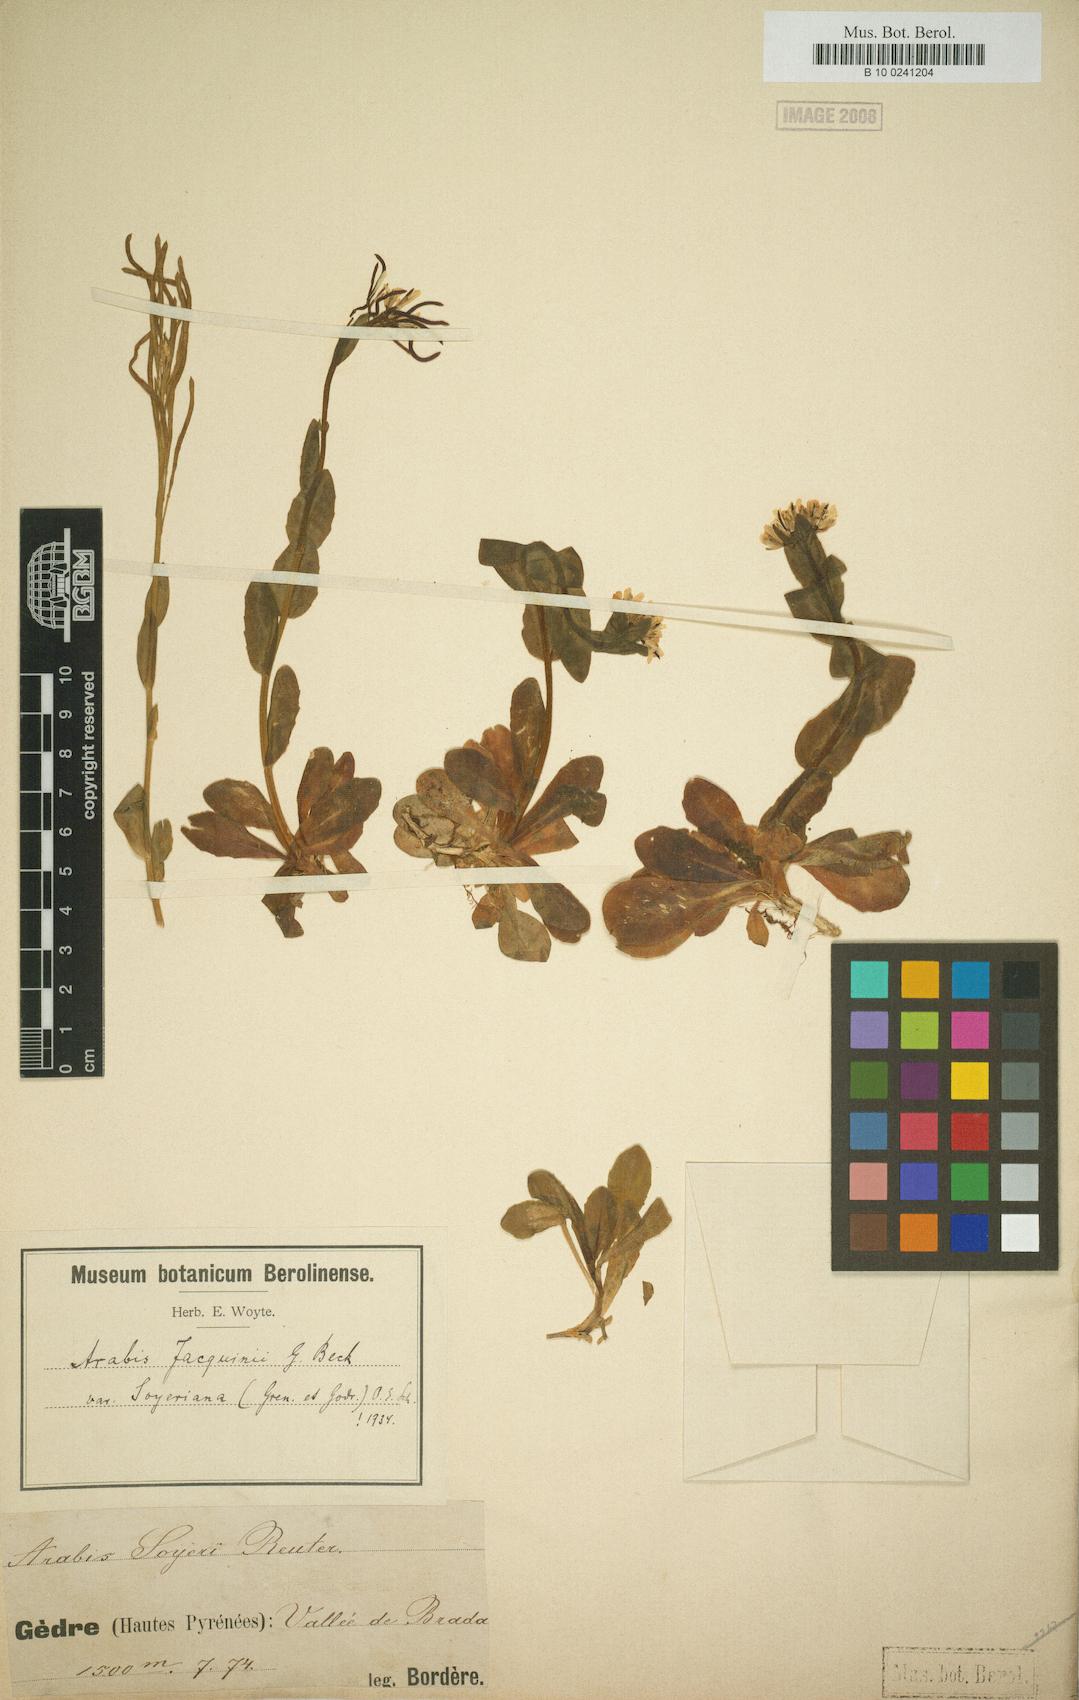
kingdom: Plantae
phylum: Tracheophyta
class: Magnoliopsida
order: Brassicales
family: Brassicaceae
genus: Arabis
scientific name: Arabis soyeri
